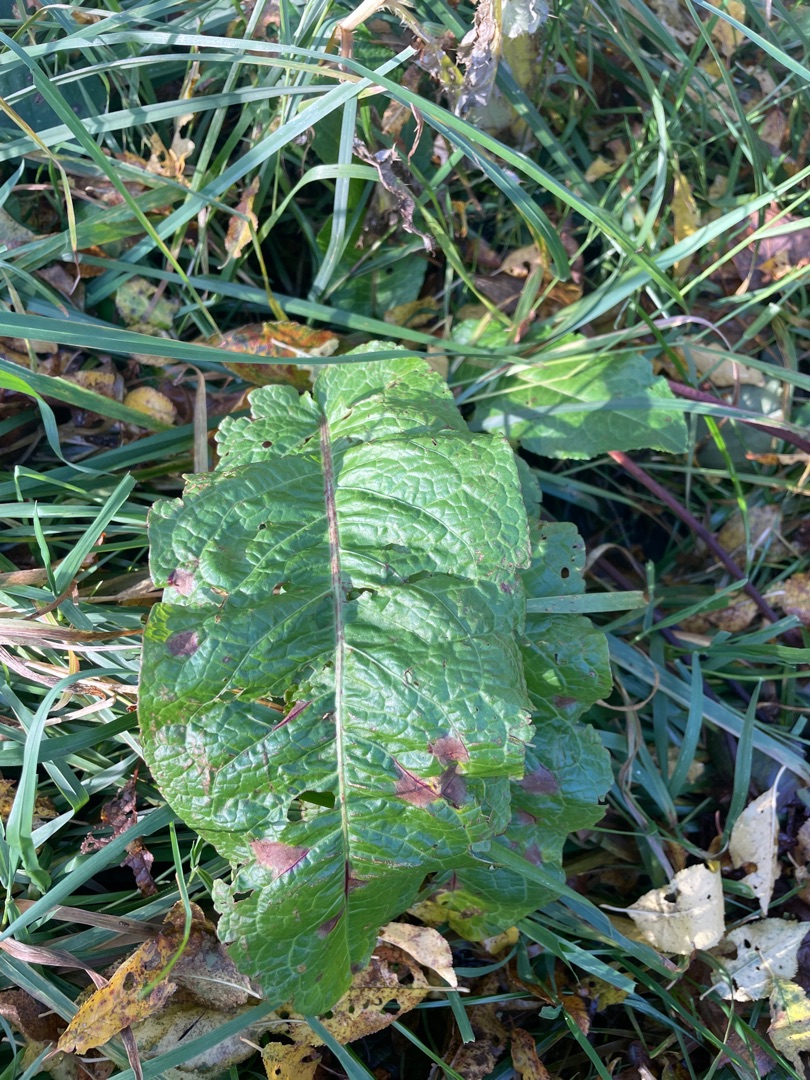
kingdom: Plantae
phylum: Tracheophyta
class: Magnoliopsida
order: Caryophyllales
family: Polygonaceae
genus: Rumex
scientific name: Rumex obtusifolius
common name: Butbladet skræppe
